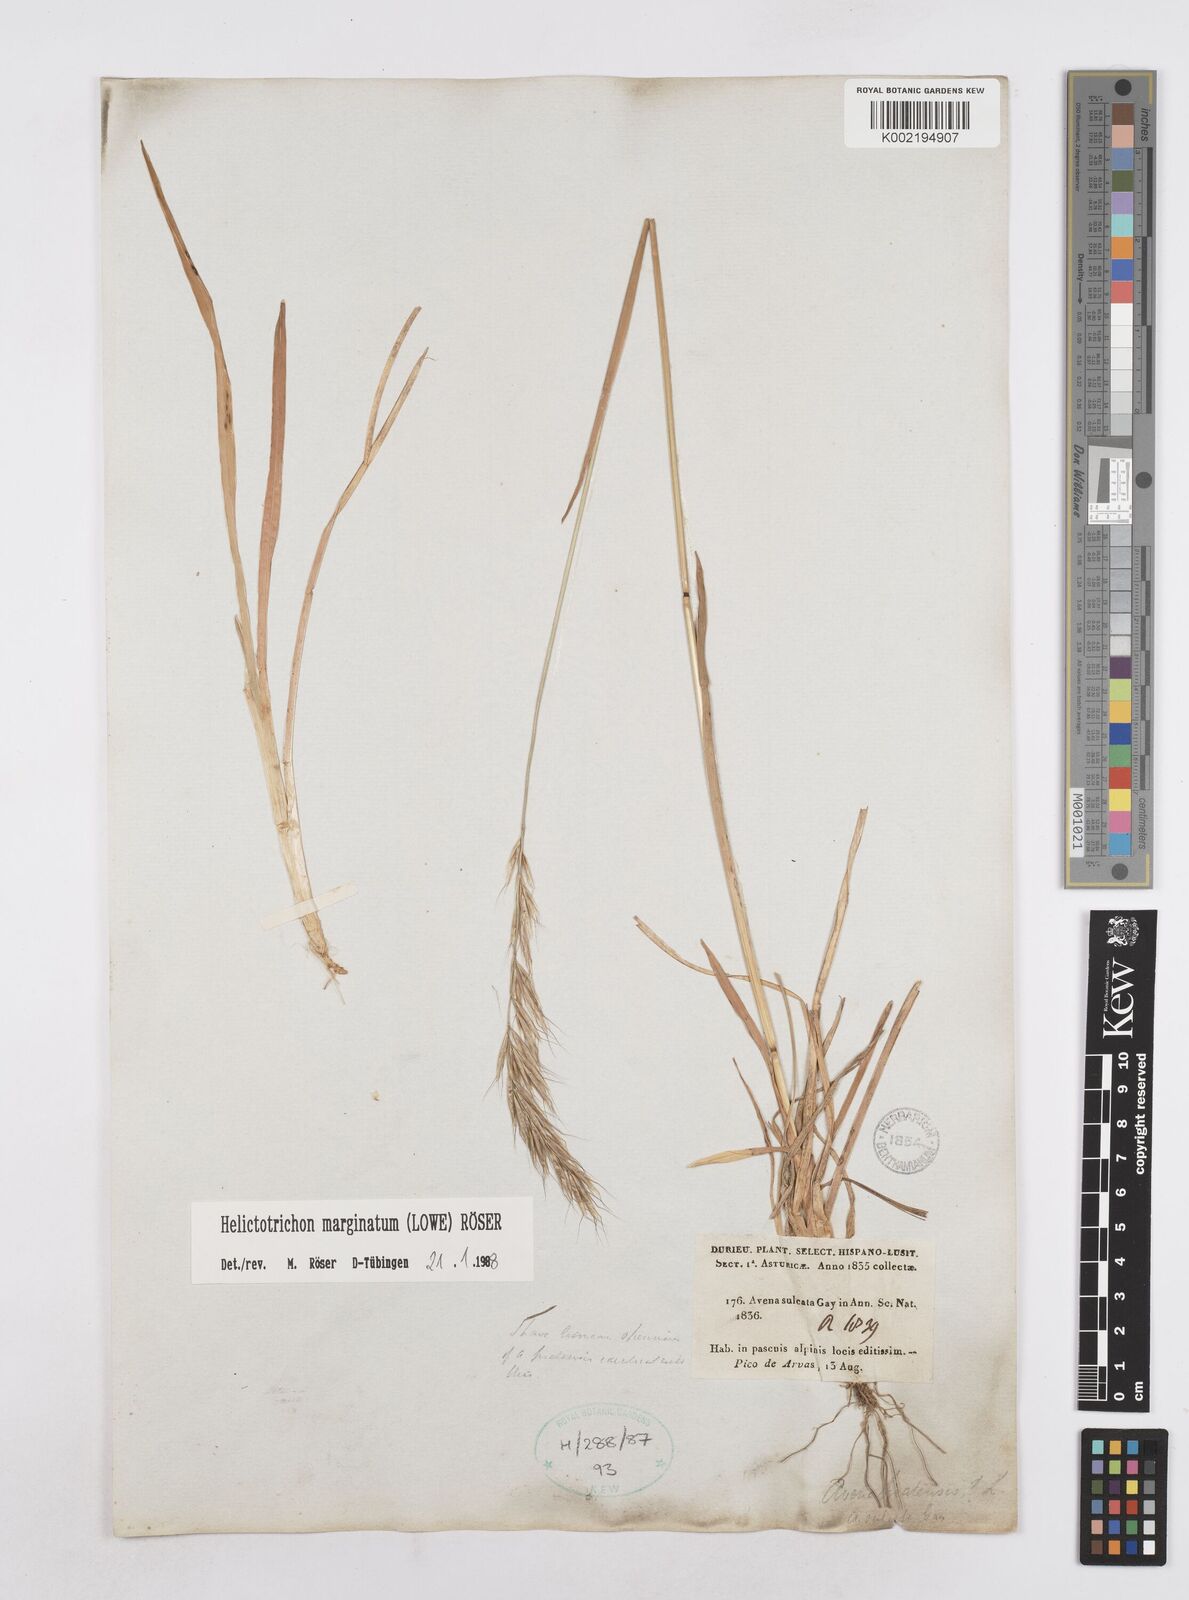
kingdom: Plantae
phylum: Tracheophyta
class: Liliopsida
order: Poales
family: Poaceae
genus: Helictotrichon
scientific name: Helictotrichon
